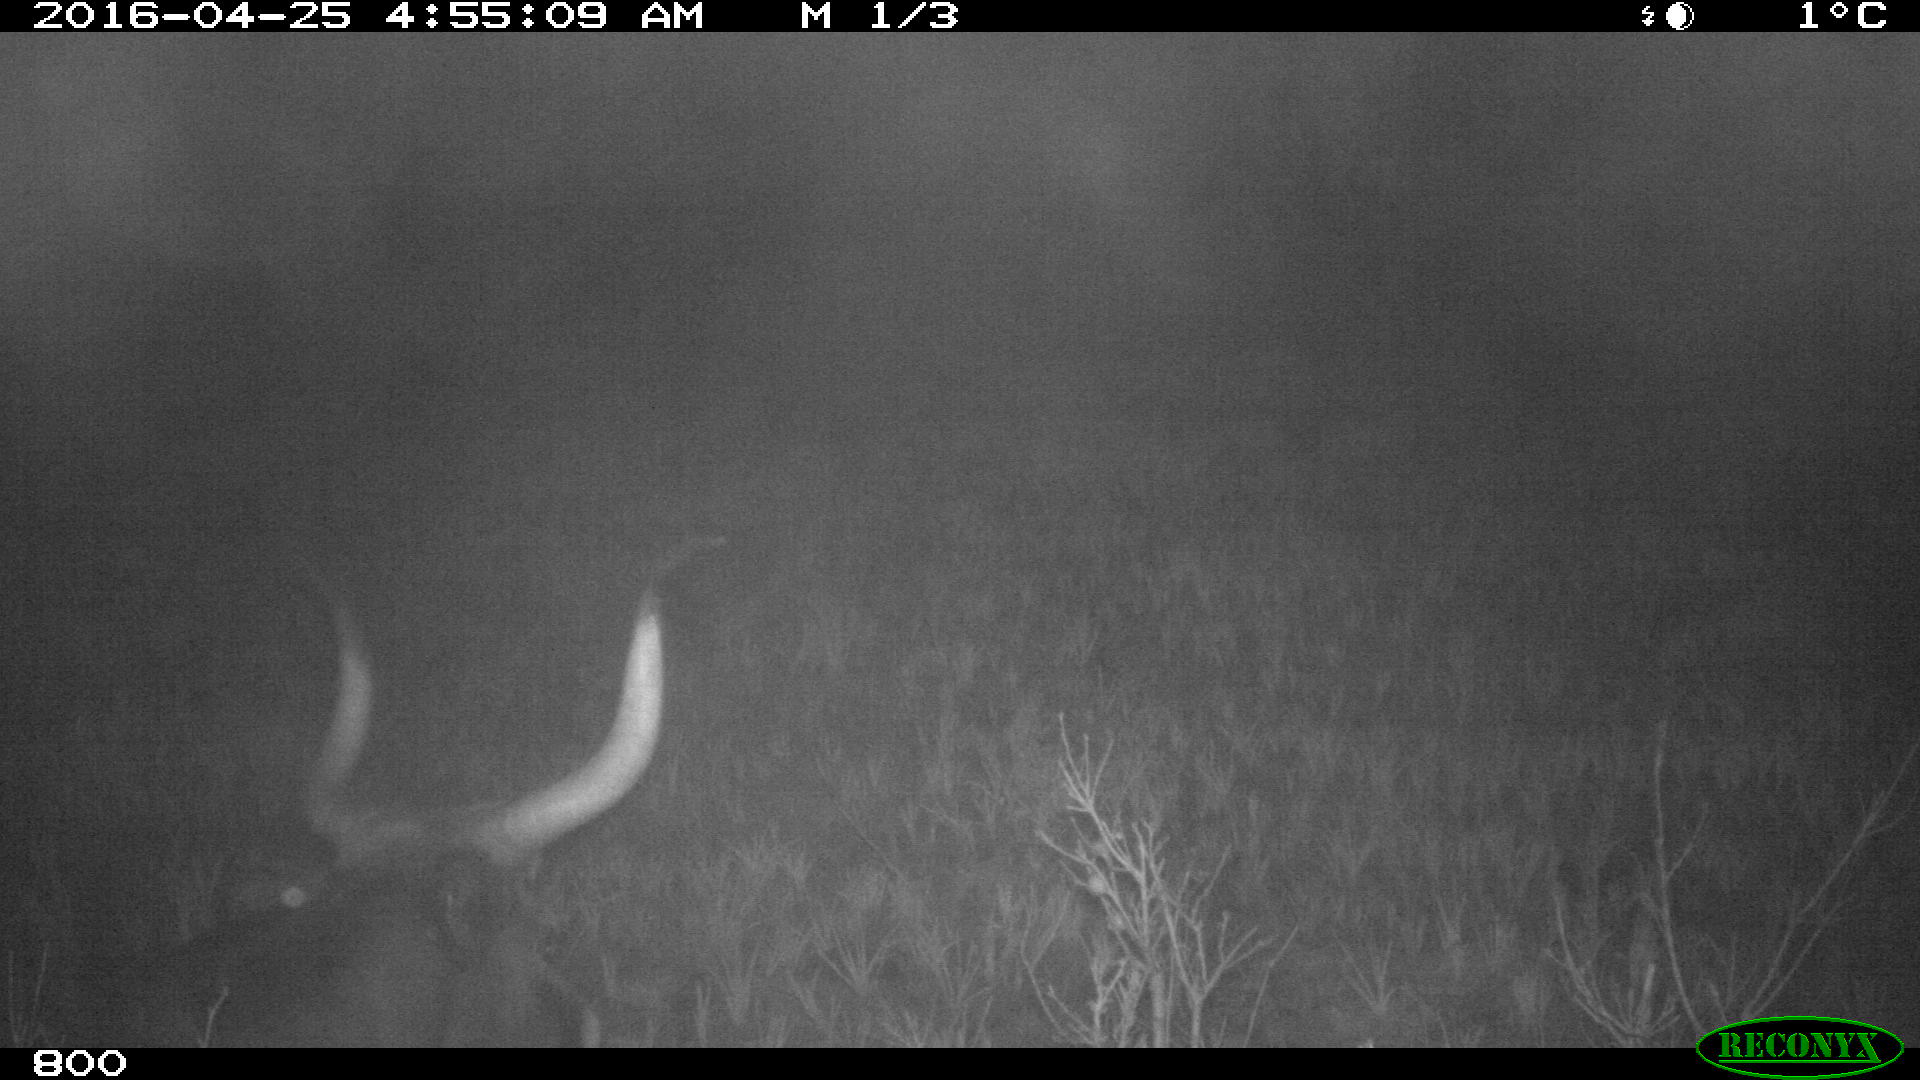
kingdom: Animalia
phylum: Chordata
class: Mammalia
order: Artiodactyla
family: Bovidae
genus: Bos
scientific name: Bos taurus
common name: Domesticated cattle
